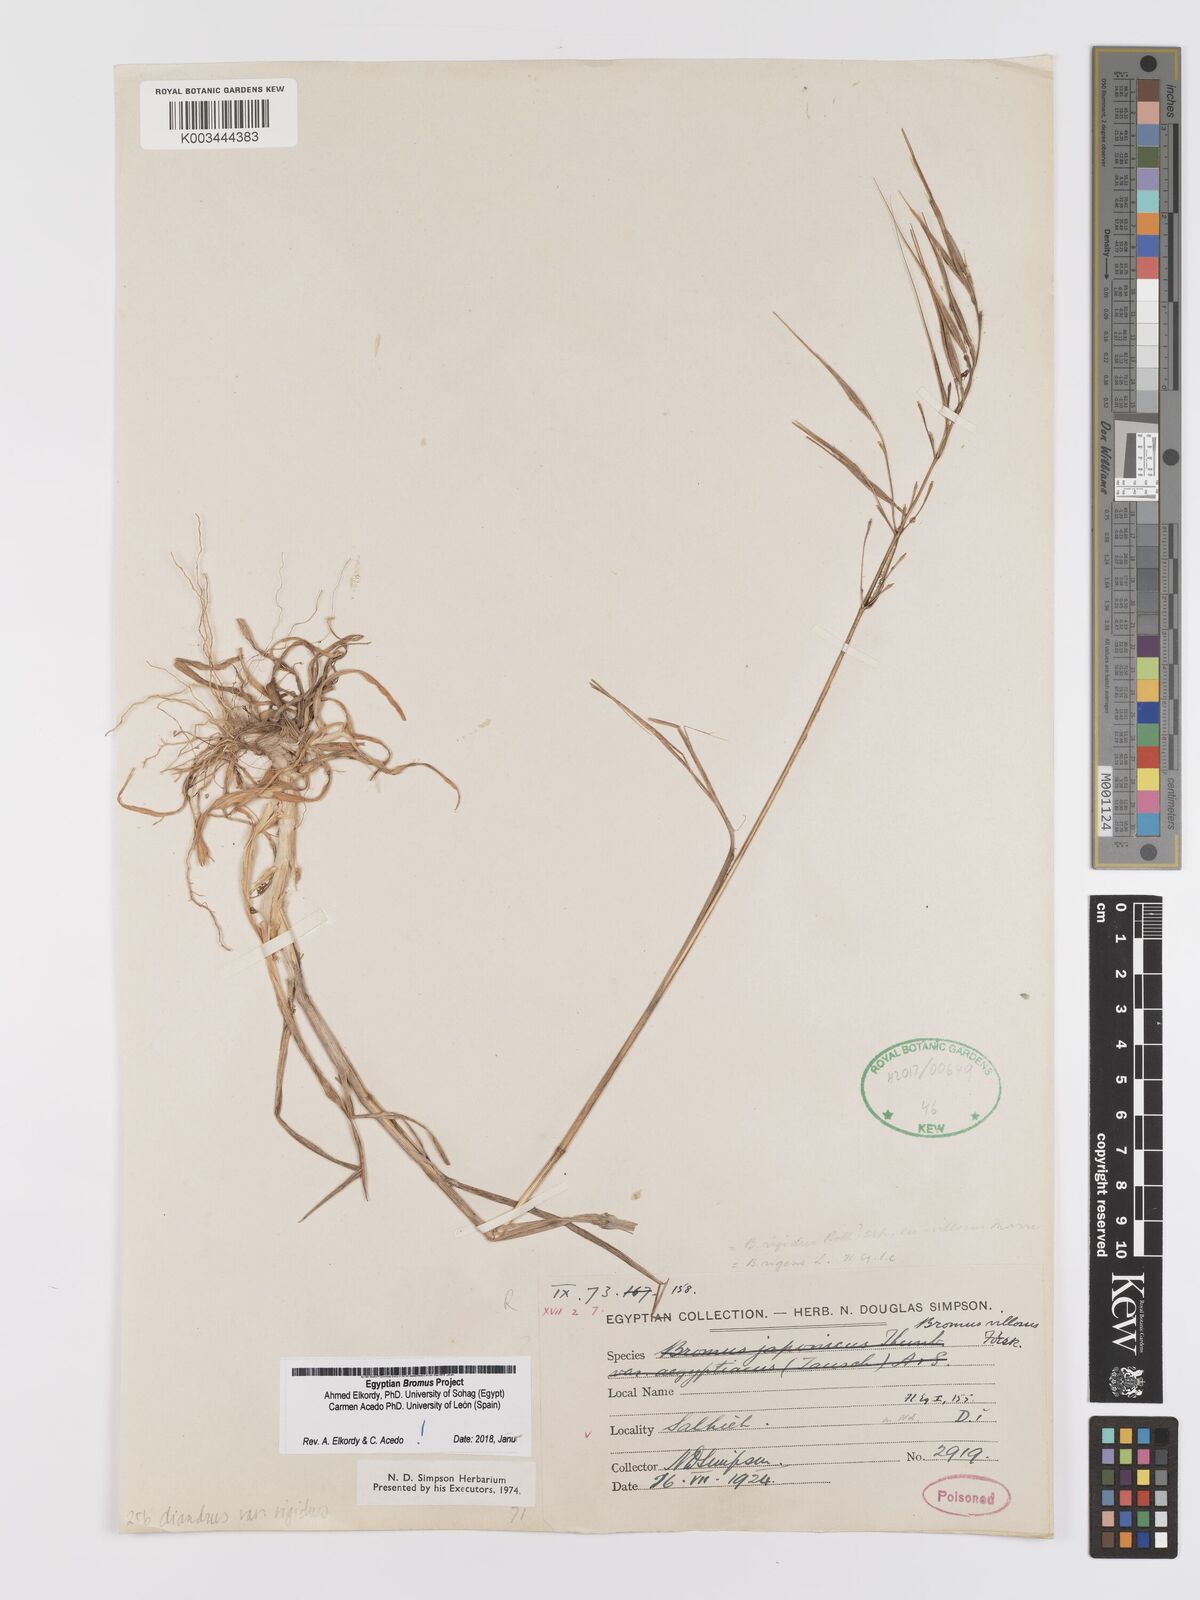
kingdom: Plantae
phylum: Tracheophyta
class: Liliopsida
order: Poales
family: Poaceae
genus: Bromus
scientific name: Bromus
